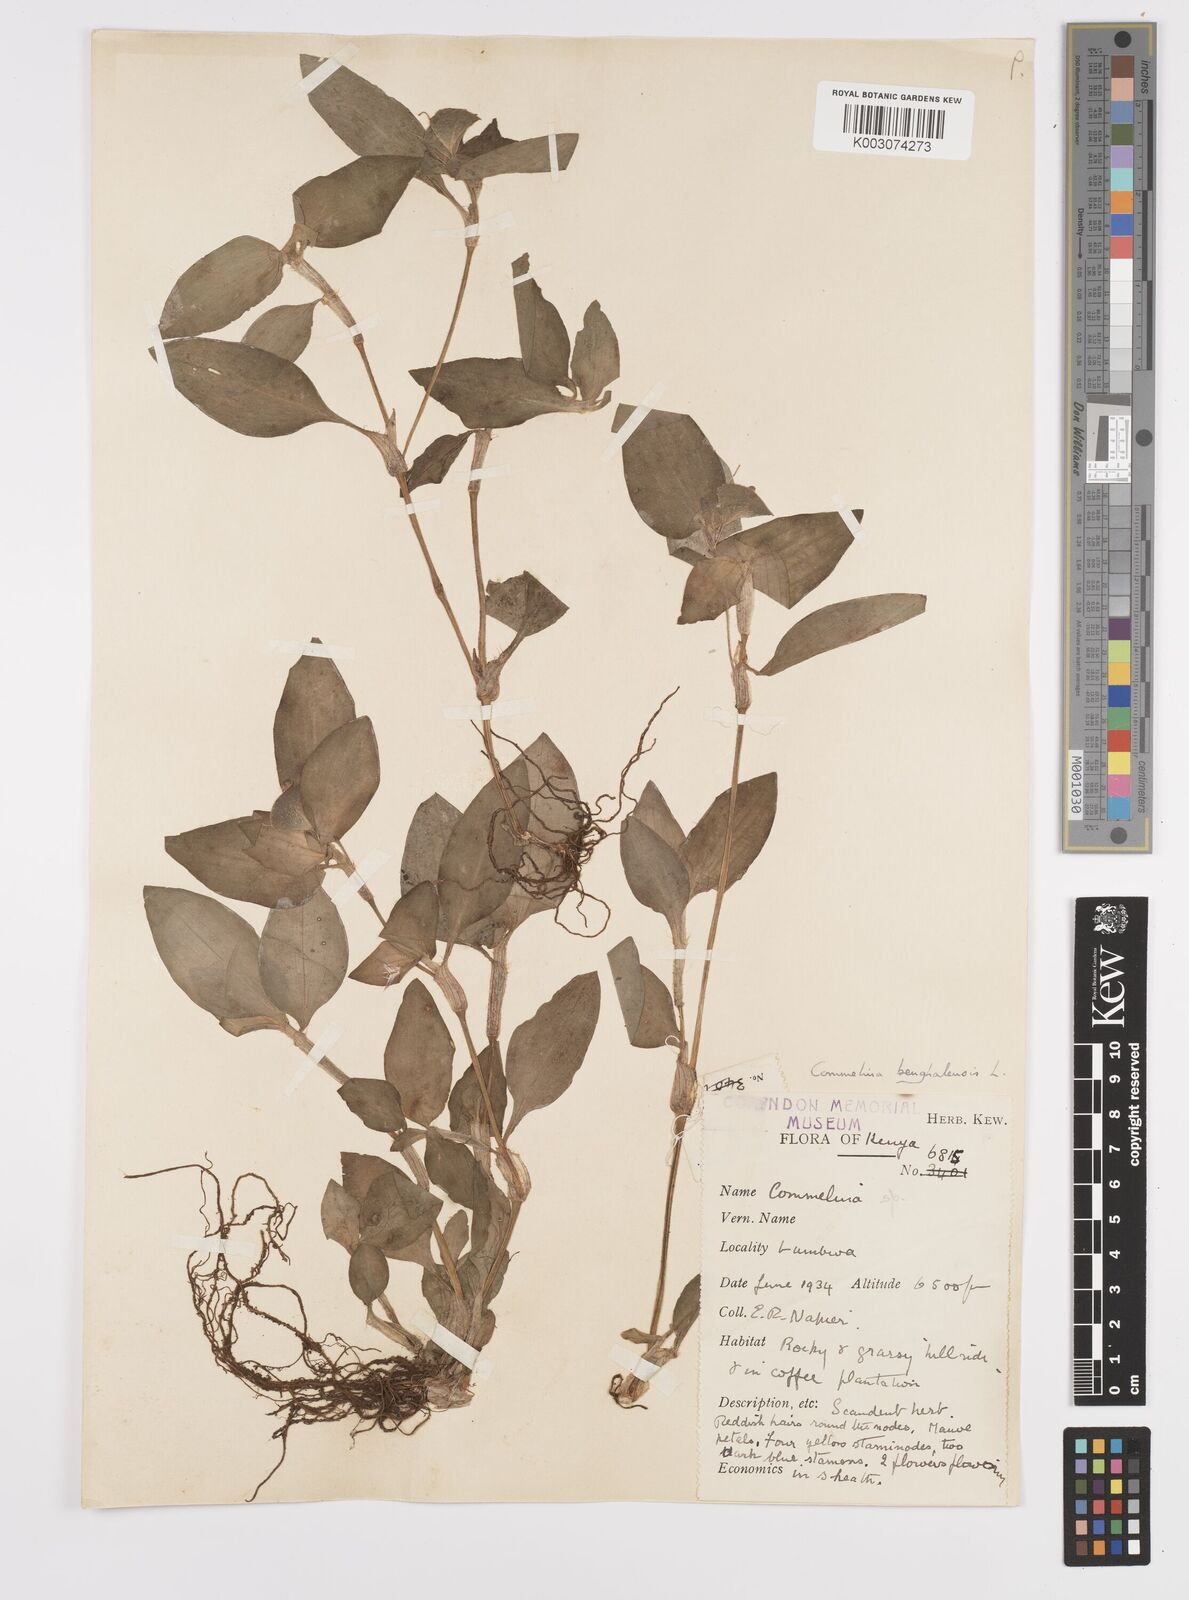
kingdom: Plantae
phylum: Tracheophyta
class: Liliopsida
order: Commelinales
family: Commelinaceae
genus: Commelina
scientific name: Commelina benghalensis
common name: Jio
